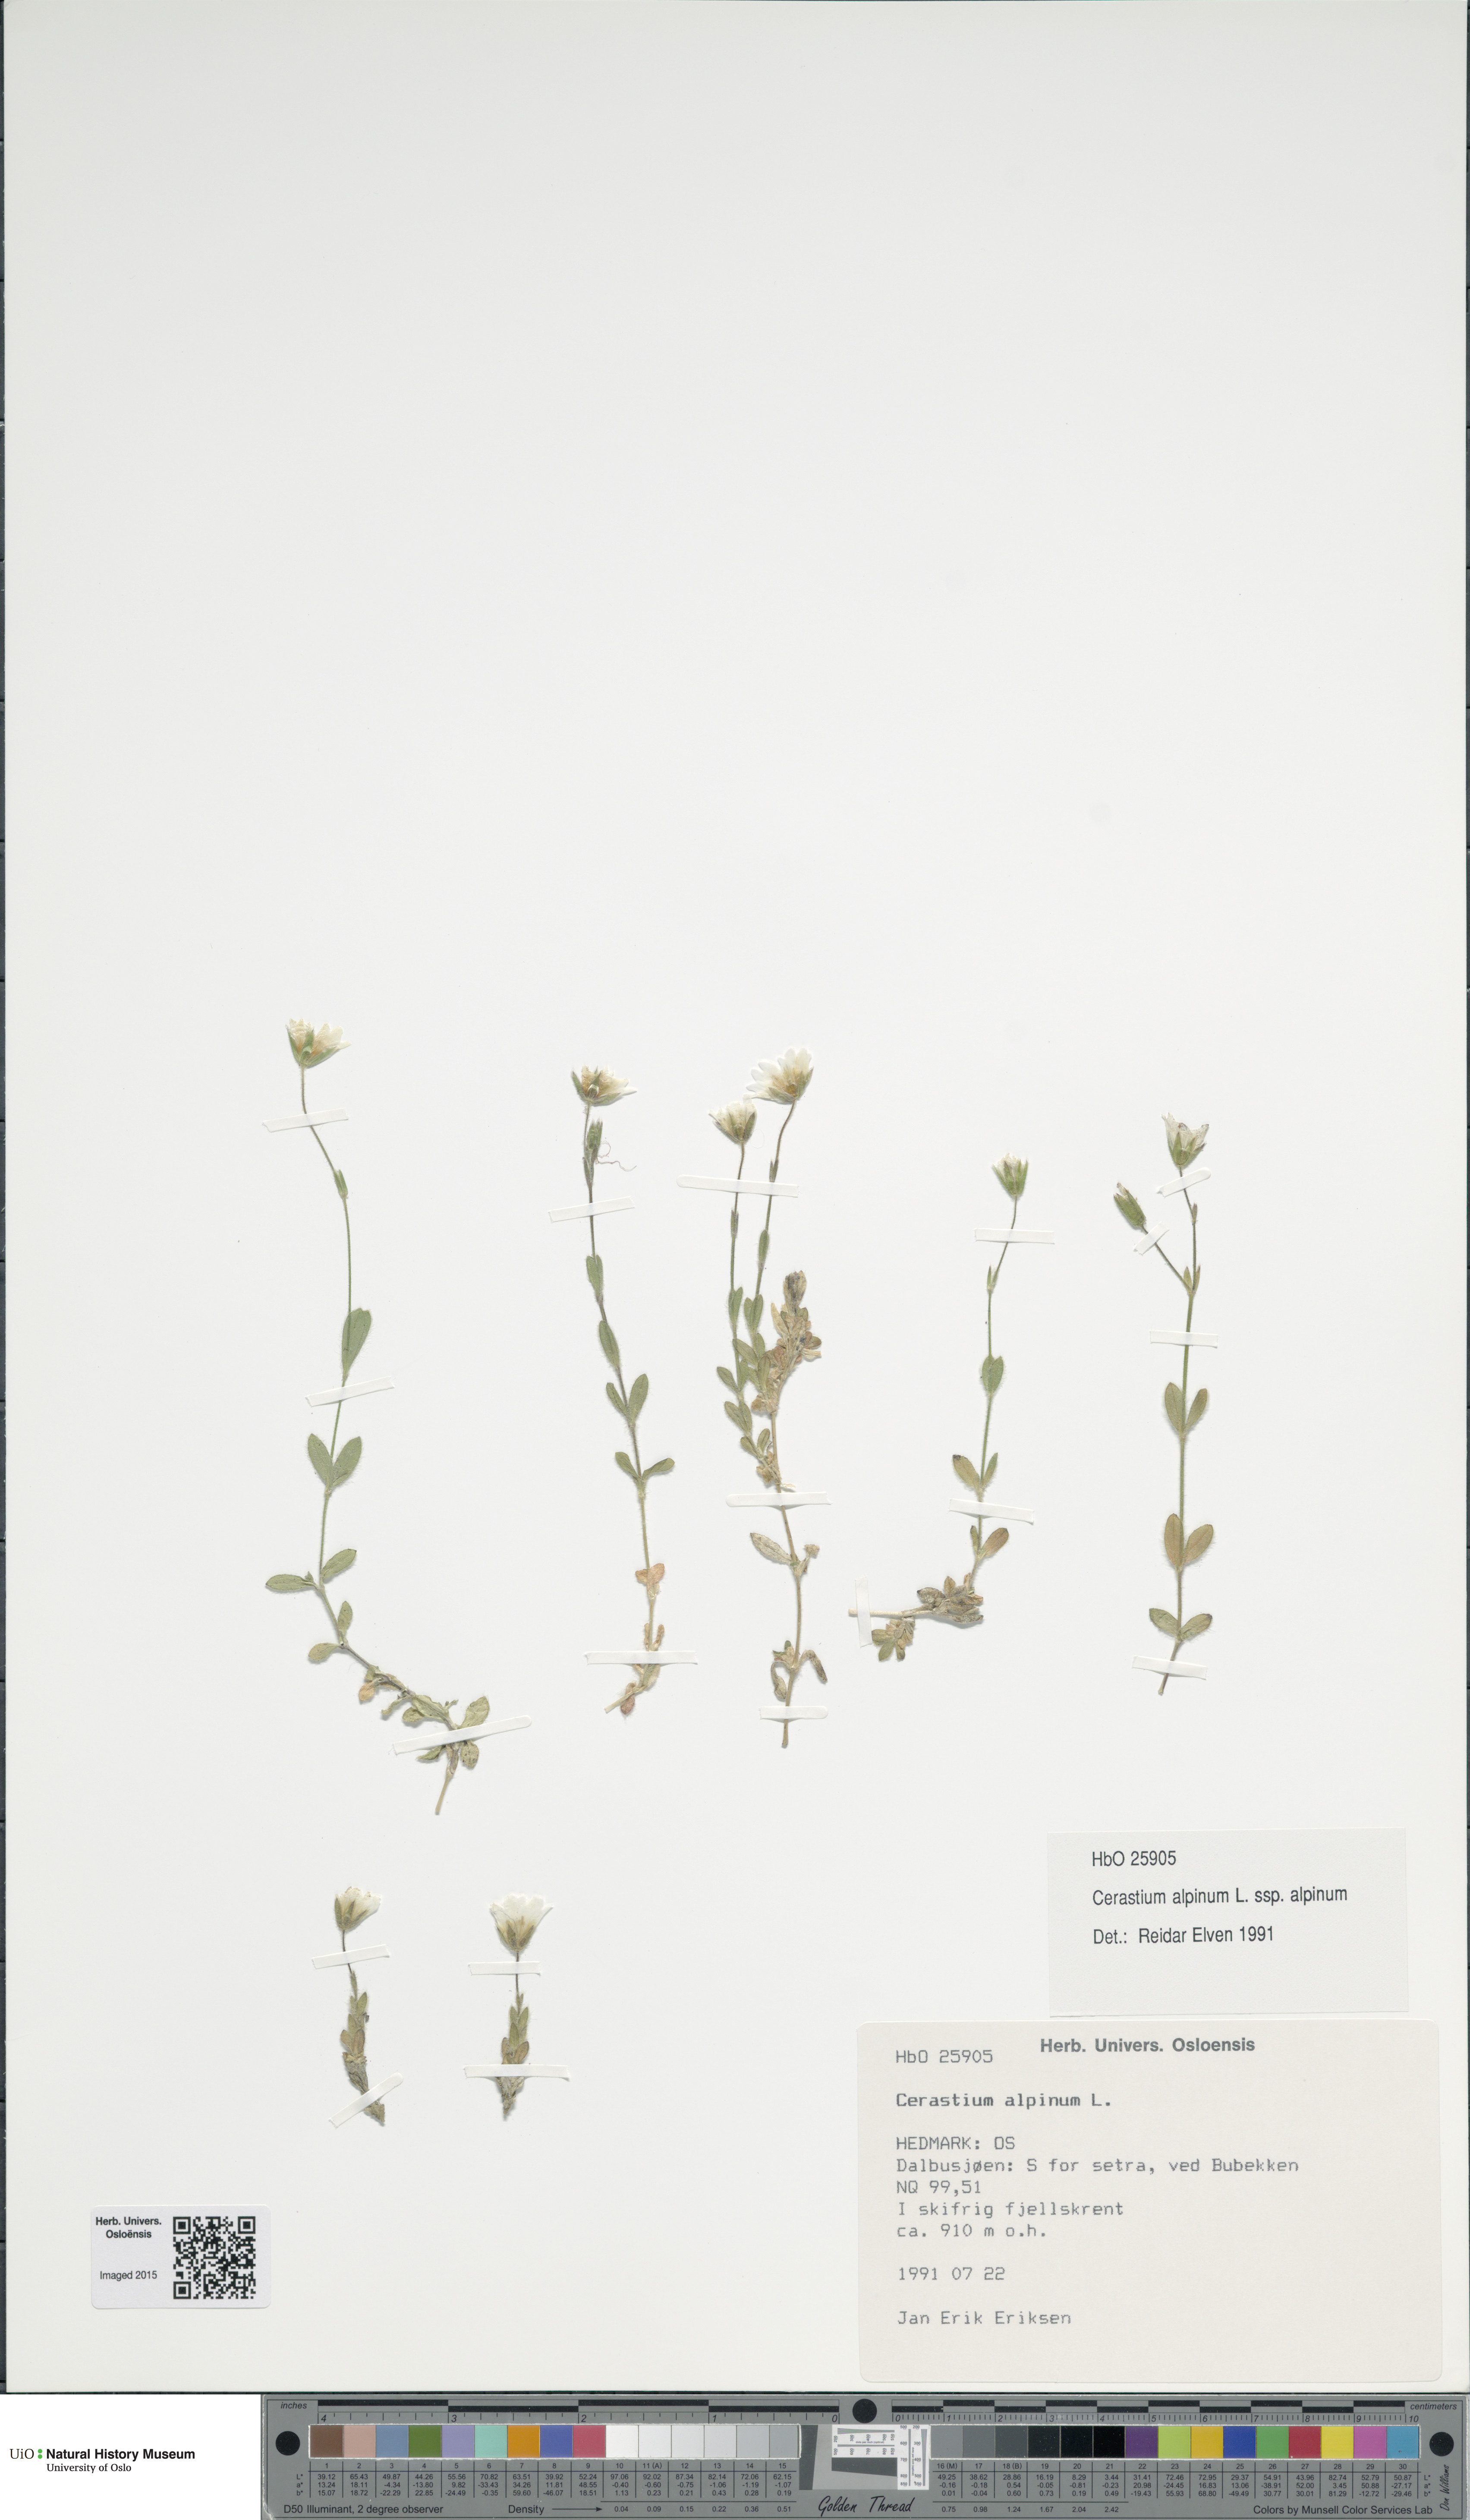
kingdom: Plantae
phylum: Tracheophyta
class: Magnoliopsida
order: Caryophyllales
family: Caryophyllaceae
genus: Cerastium
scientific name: Cerastium alpinum
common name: Alpine mouse-ear
